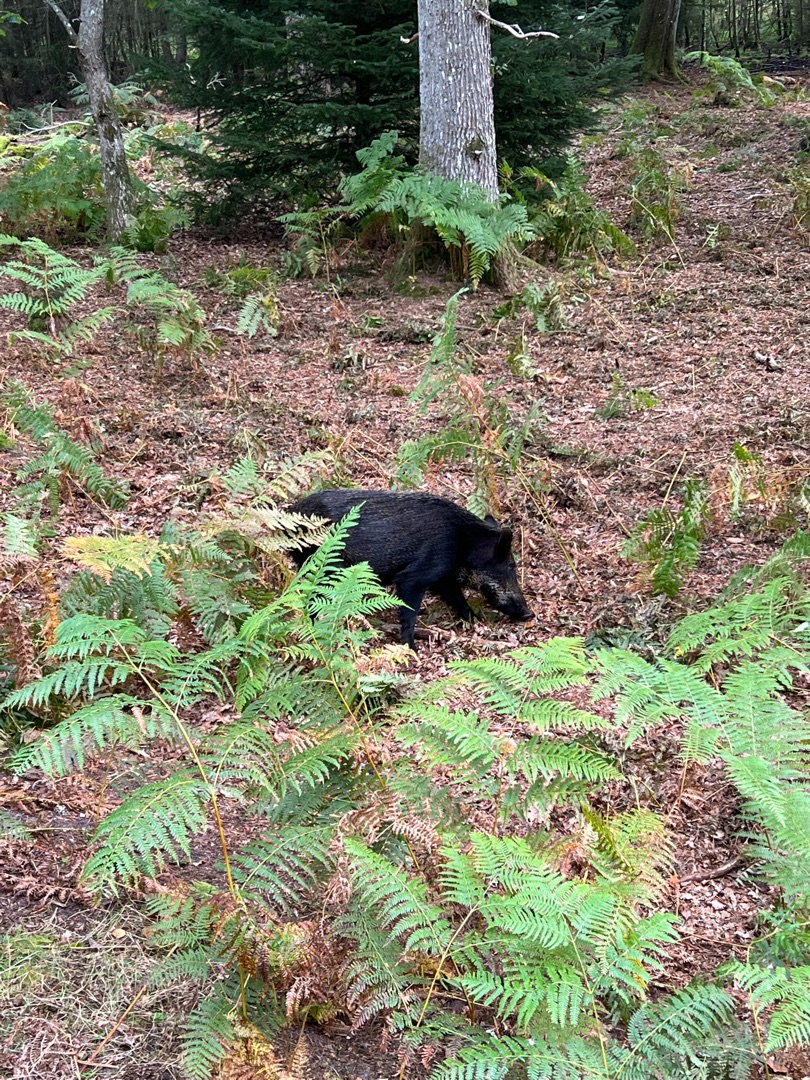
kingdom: Plantae
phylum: Tracheophyta
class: Polypodiopsida
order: Polypodiales
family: Dennstaedtiaceae
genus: Pteridium
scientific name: Pteridium aquilinum
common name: Ørnebregne
